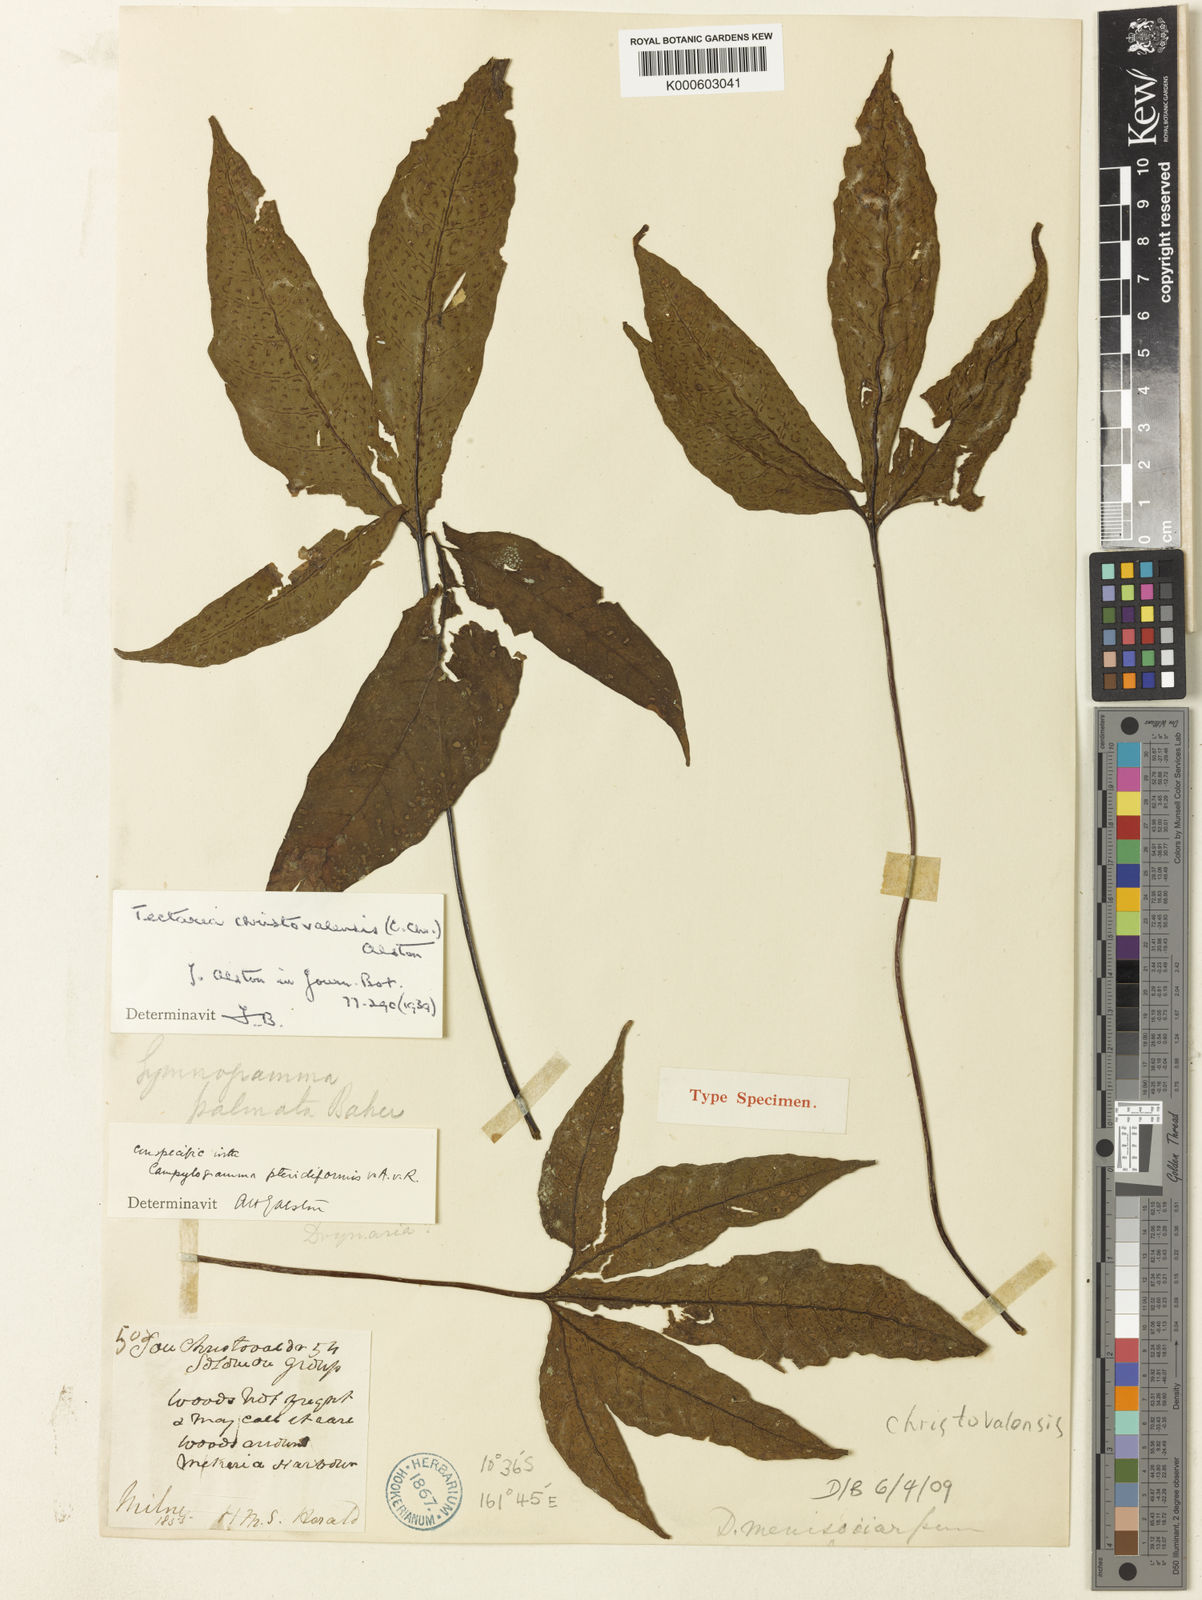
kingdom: Plantae
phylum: Tracheophyta
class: Polypodiopsida
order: Polypodiales
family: Tectariaceae
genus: Tectaria
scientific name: Tectaria christovalensis
